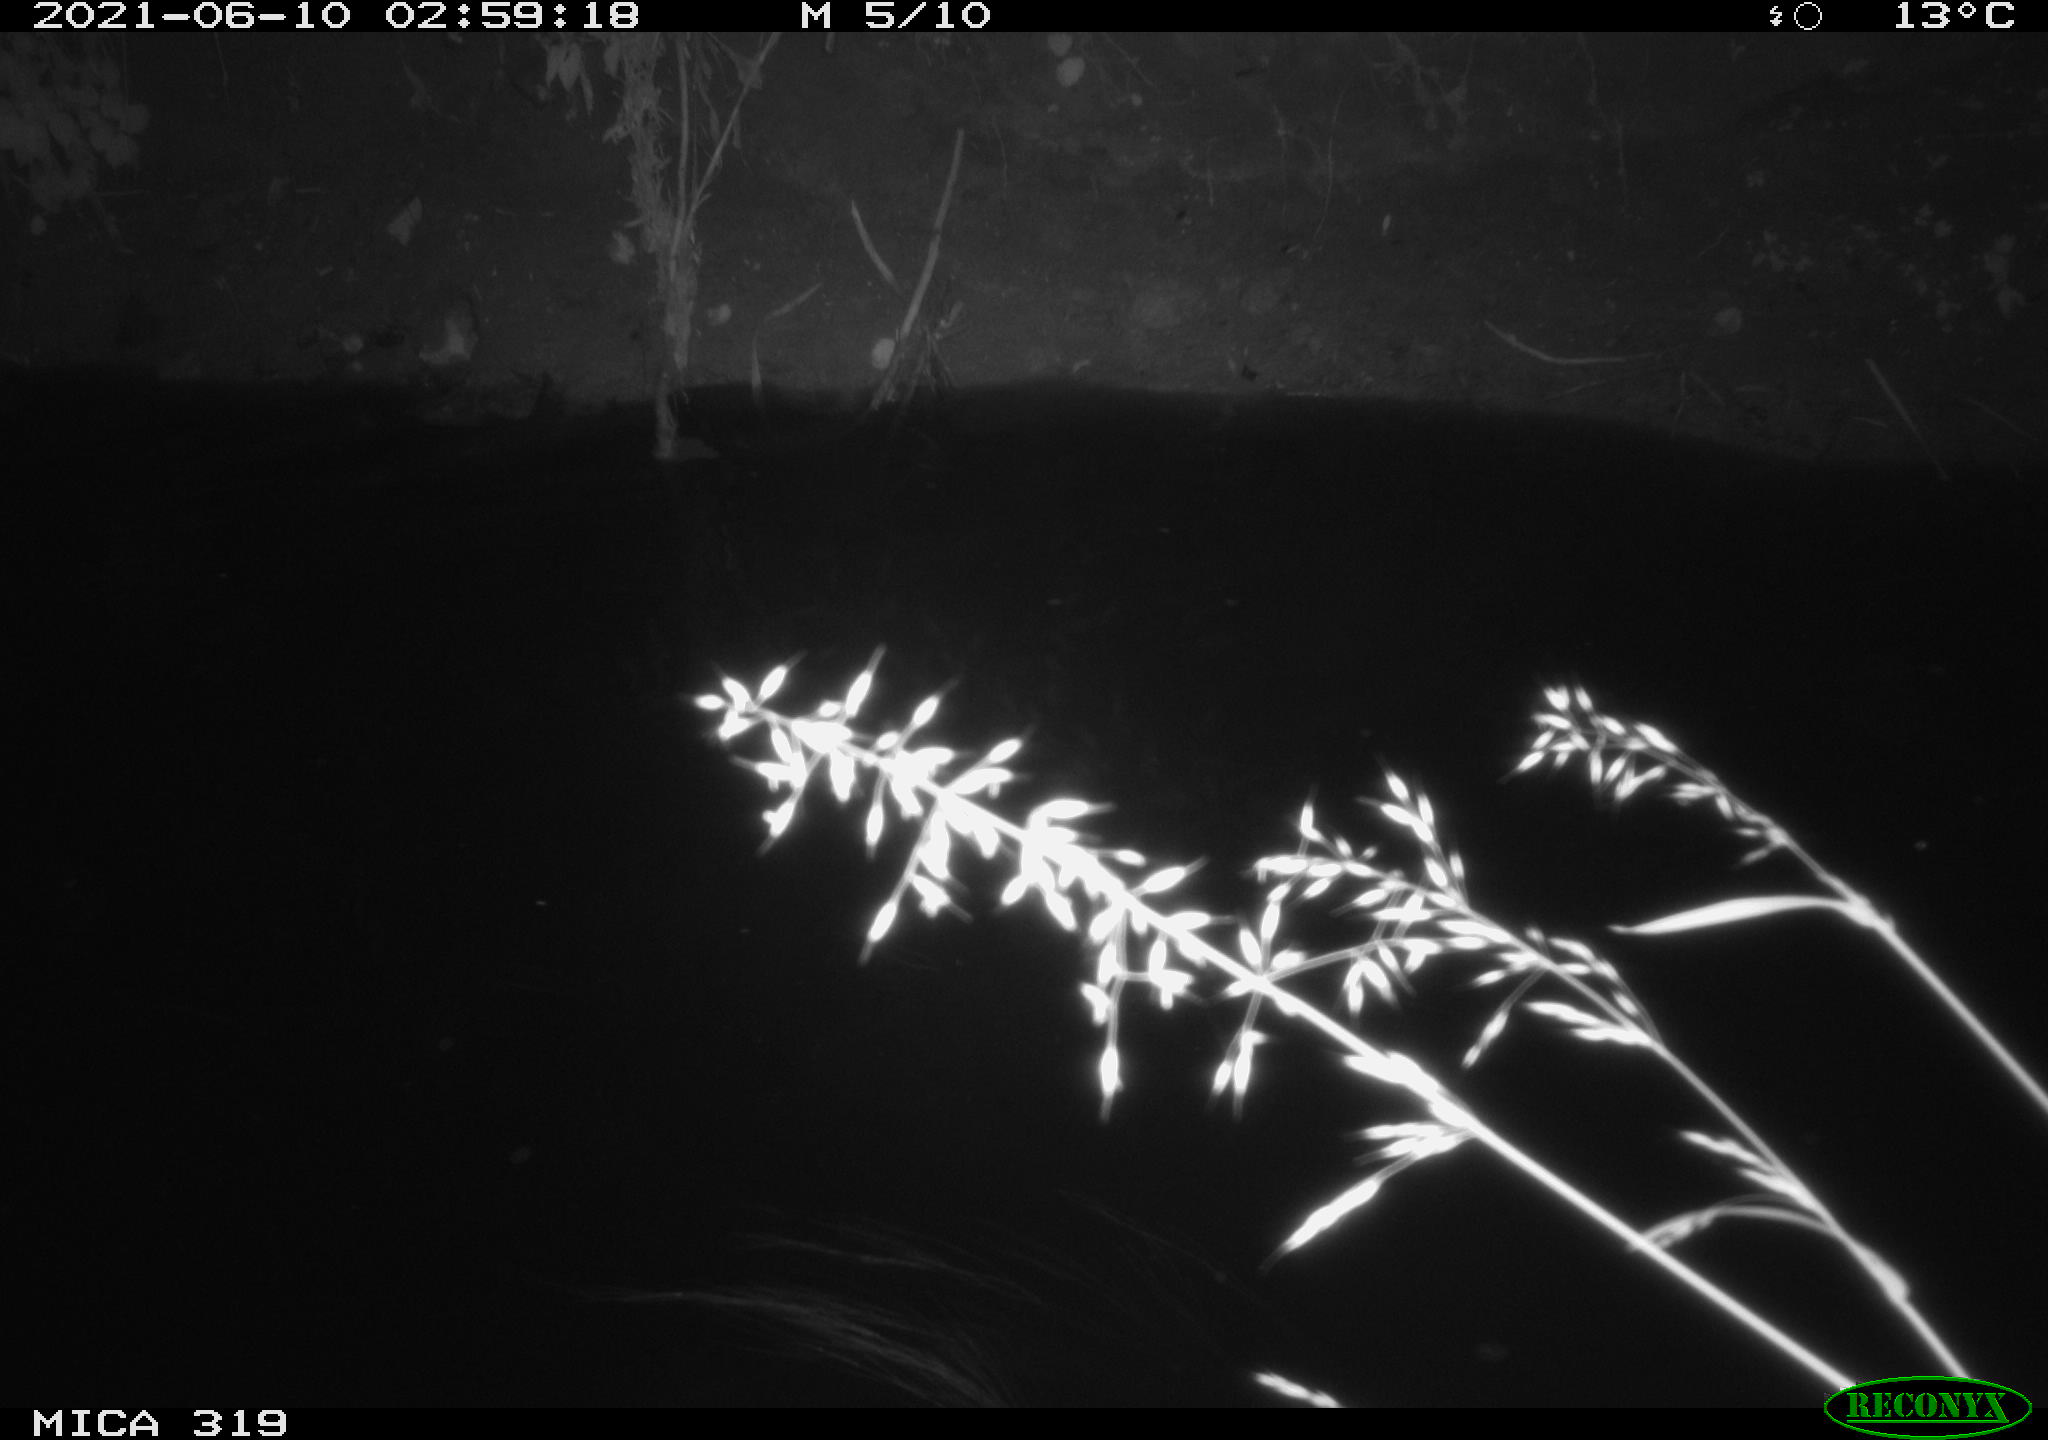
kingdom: Animalia
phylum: Chordata
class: Aves
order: Anseriformes
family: Anatidae
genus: Anas
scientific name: Anas platyrhynchos
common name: Mallard
